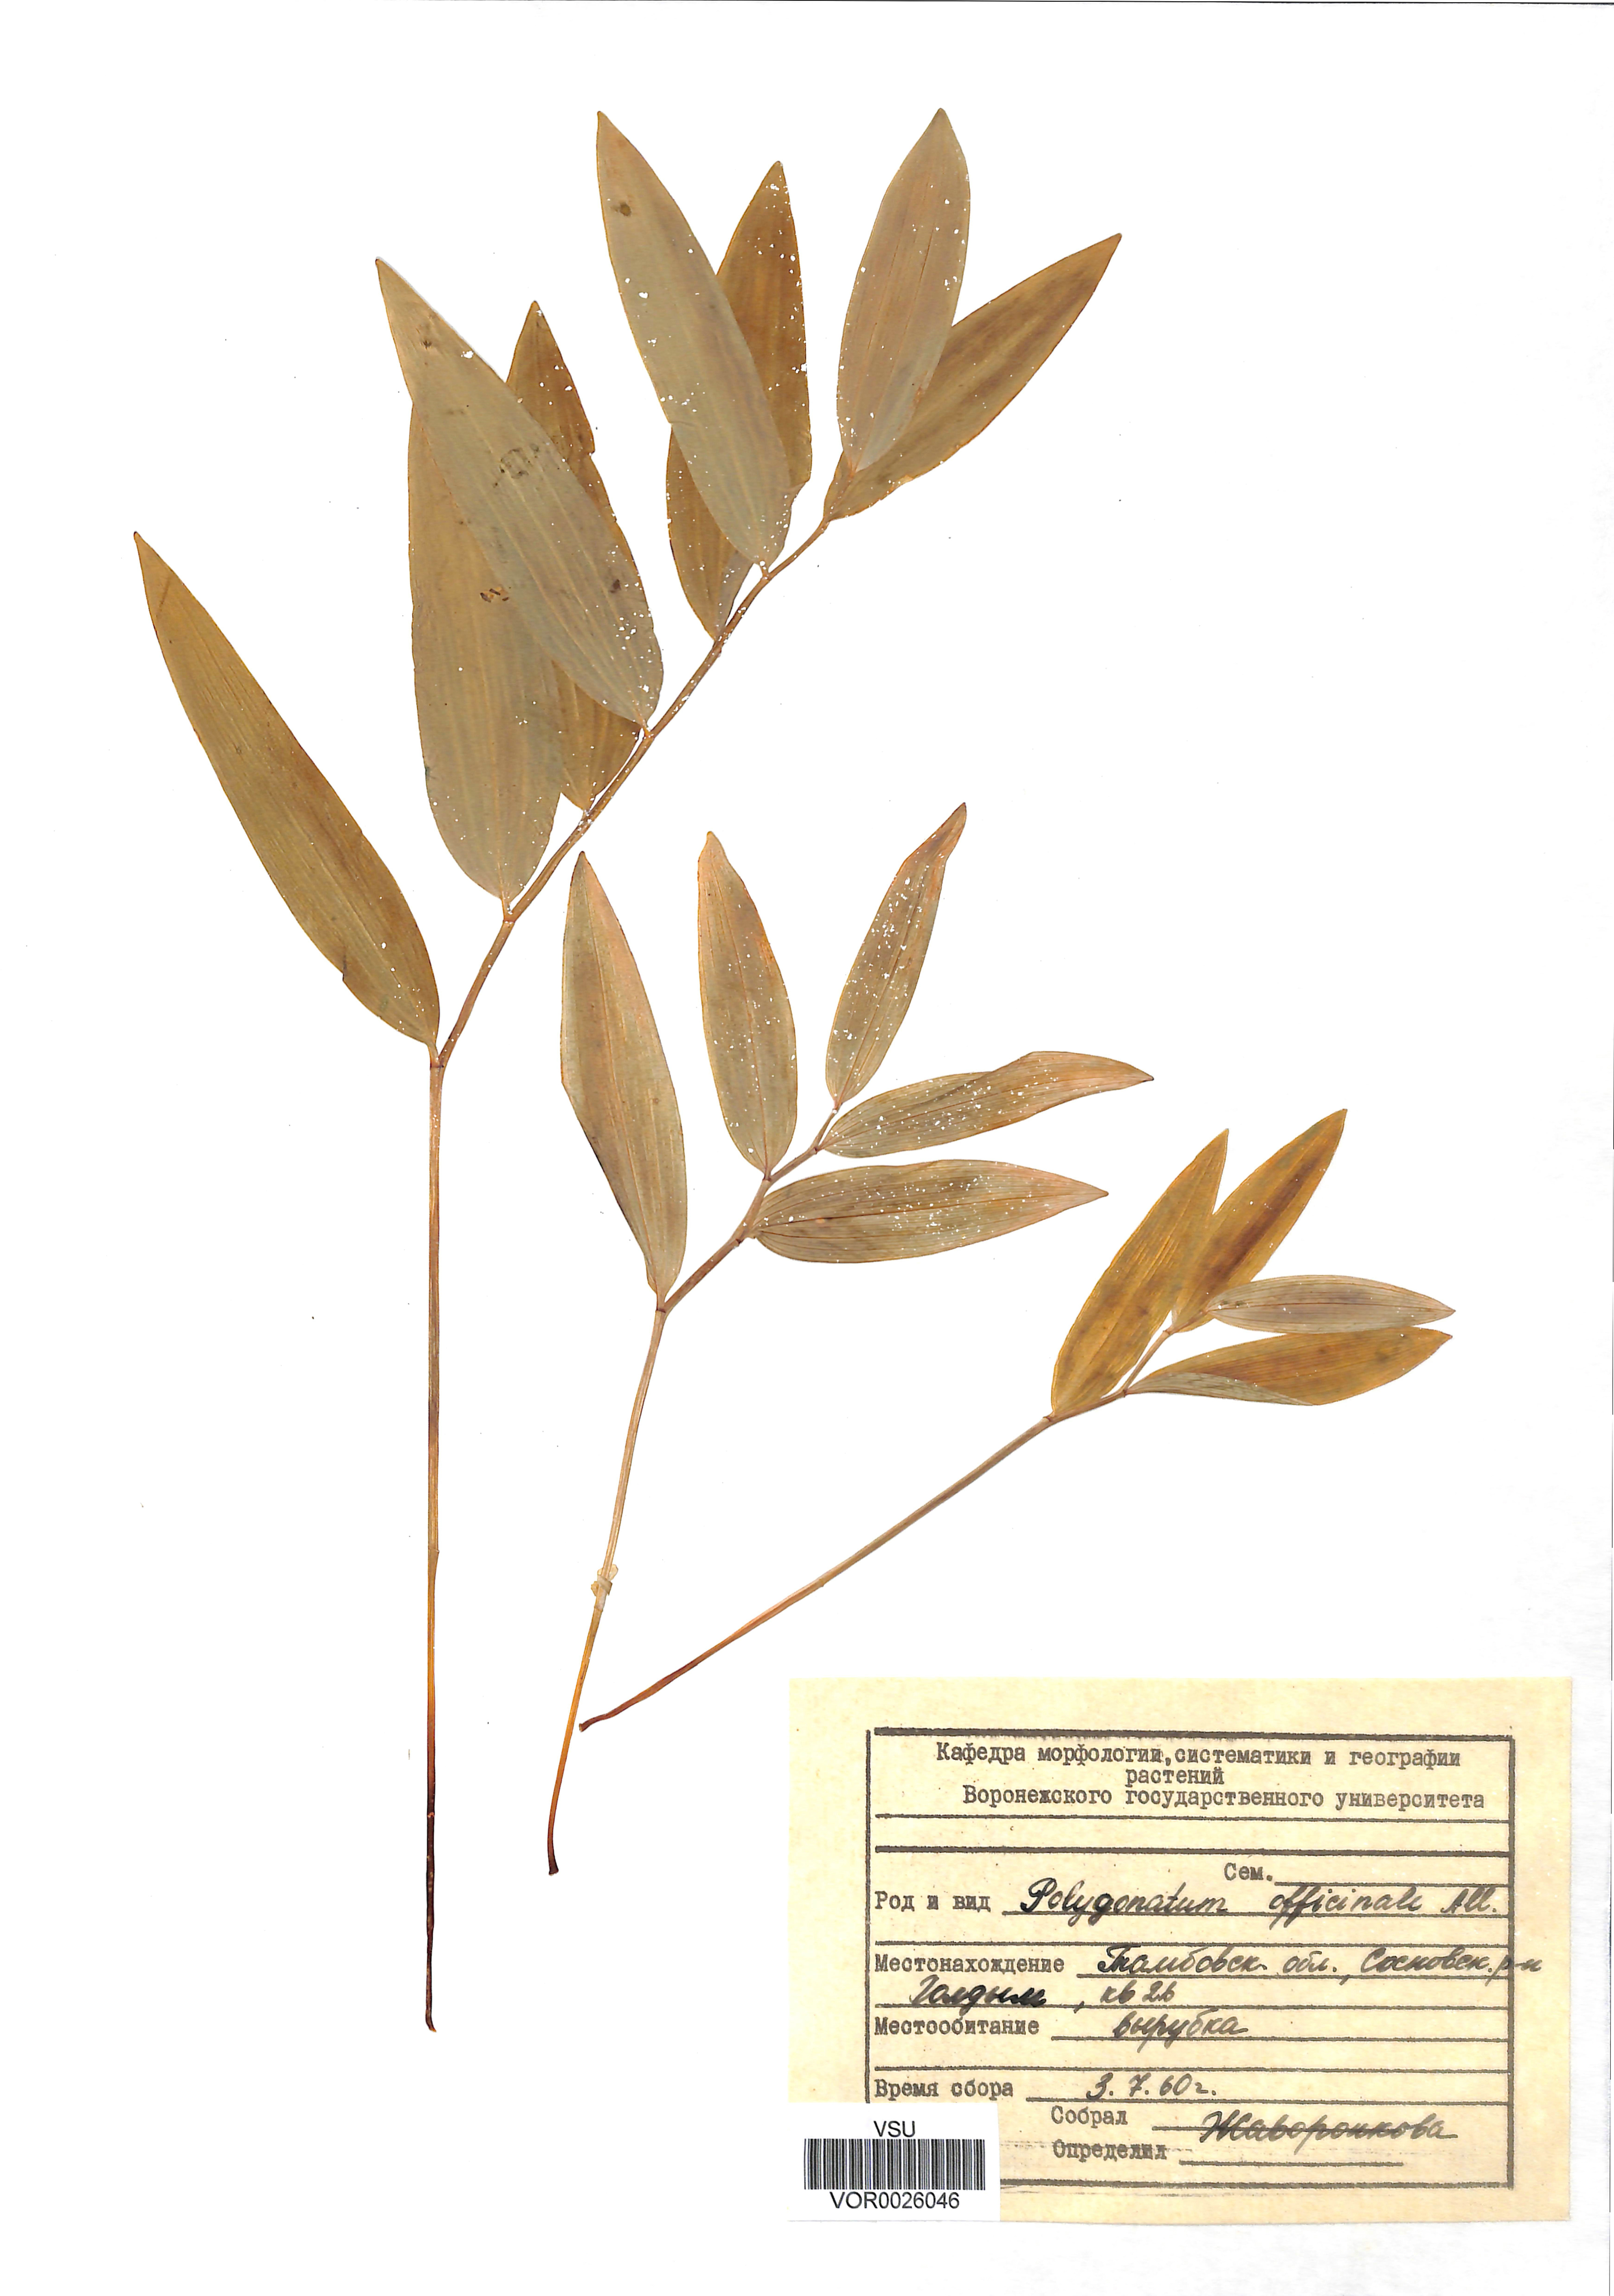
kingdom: Plantae
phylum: Tracheophyta
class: Liliopsida
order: Asparagales
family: Asparagaceae
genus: Polygonatum
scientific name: Polygonatum odoratum
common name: Angular solomon's-seal
